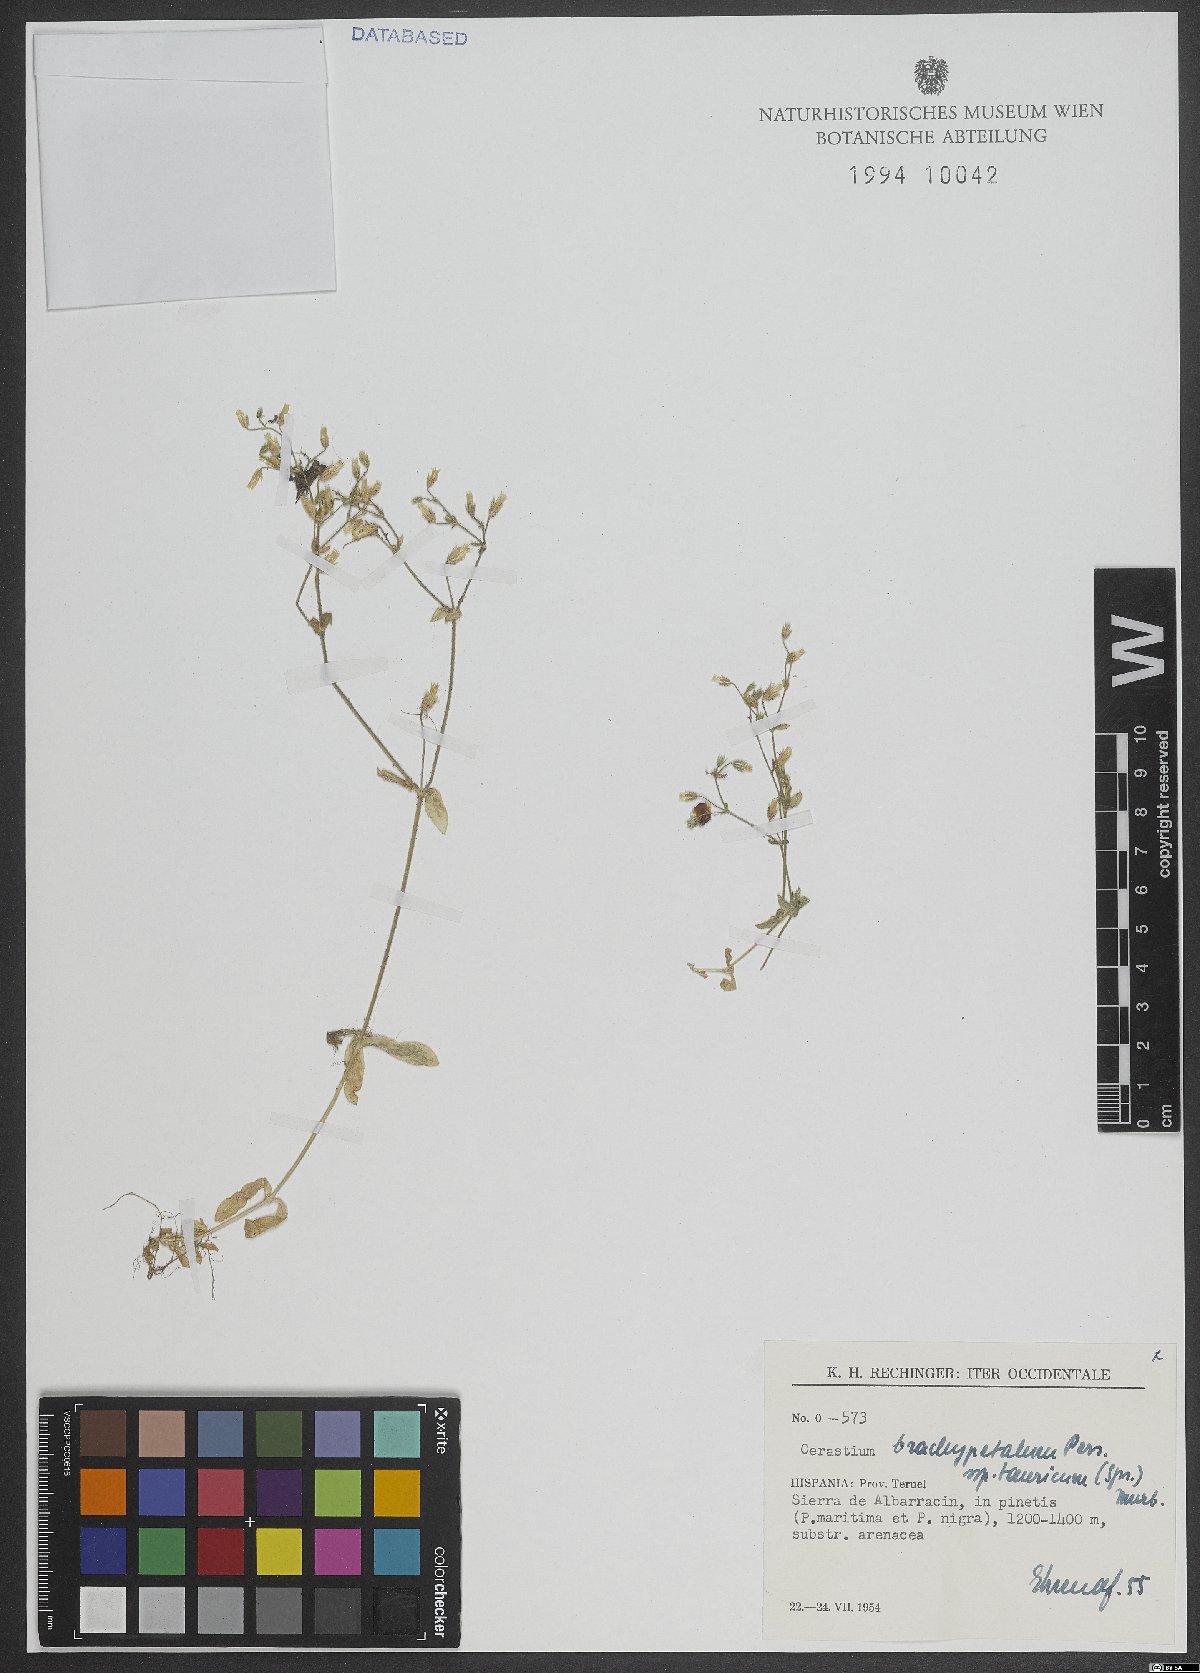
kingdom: Plantae
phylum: Tracheophyta
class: Magnoliopsida
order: Caryophyllales
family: Caryophyllaceae
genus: Cerastium
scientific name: Cerastium brachypetalum
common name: Grey mouse-ear
